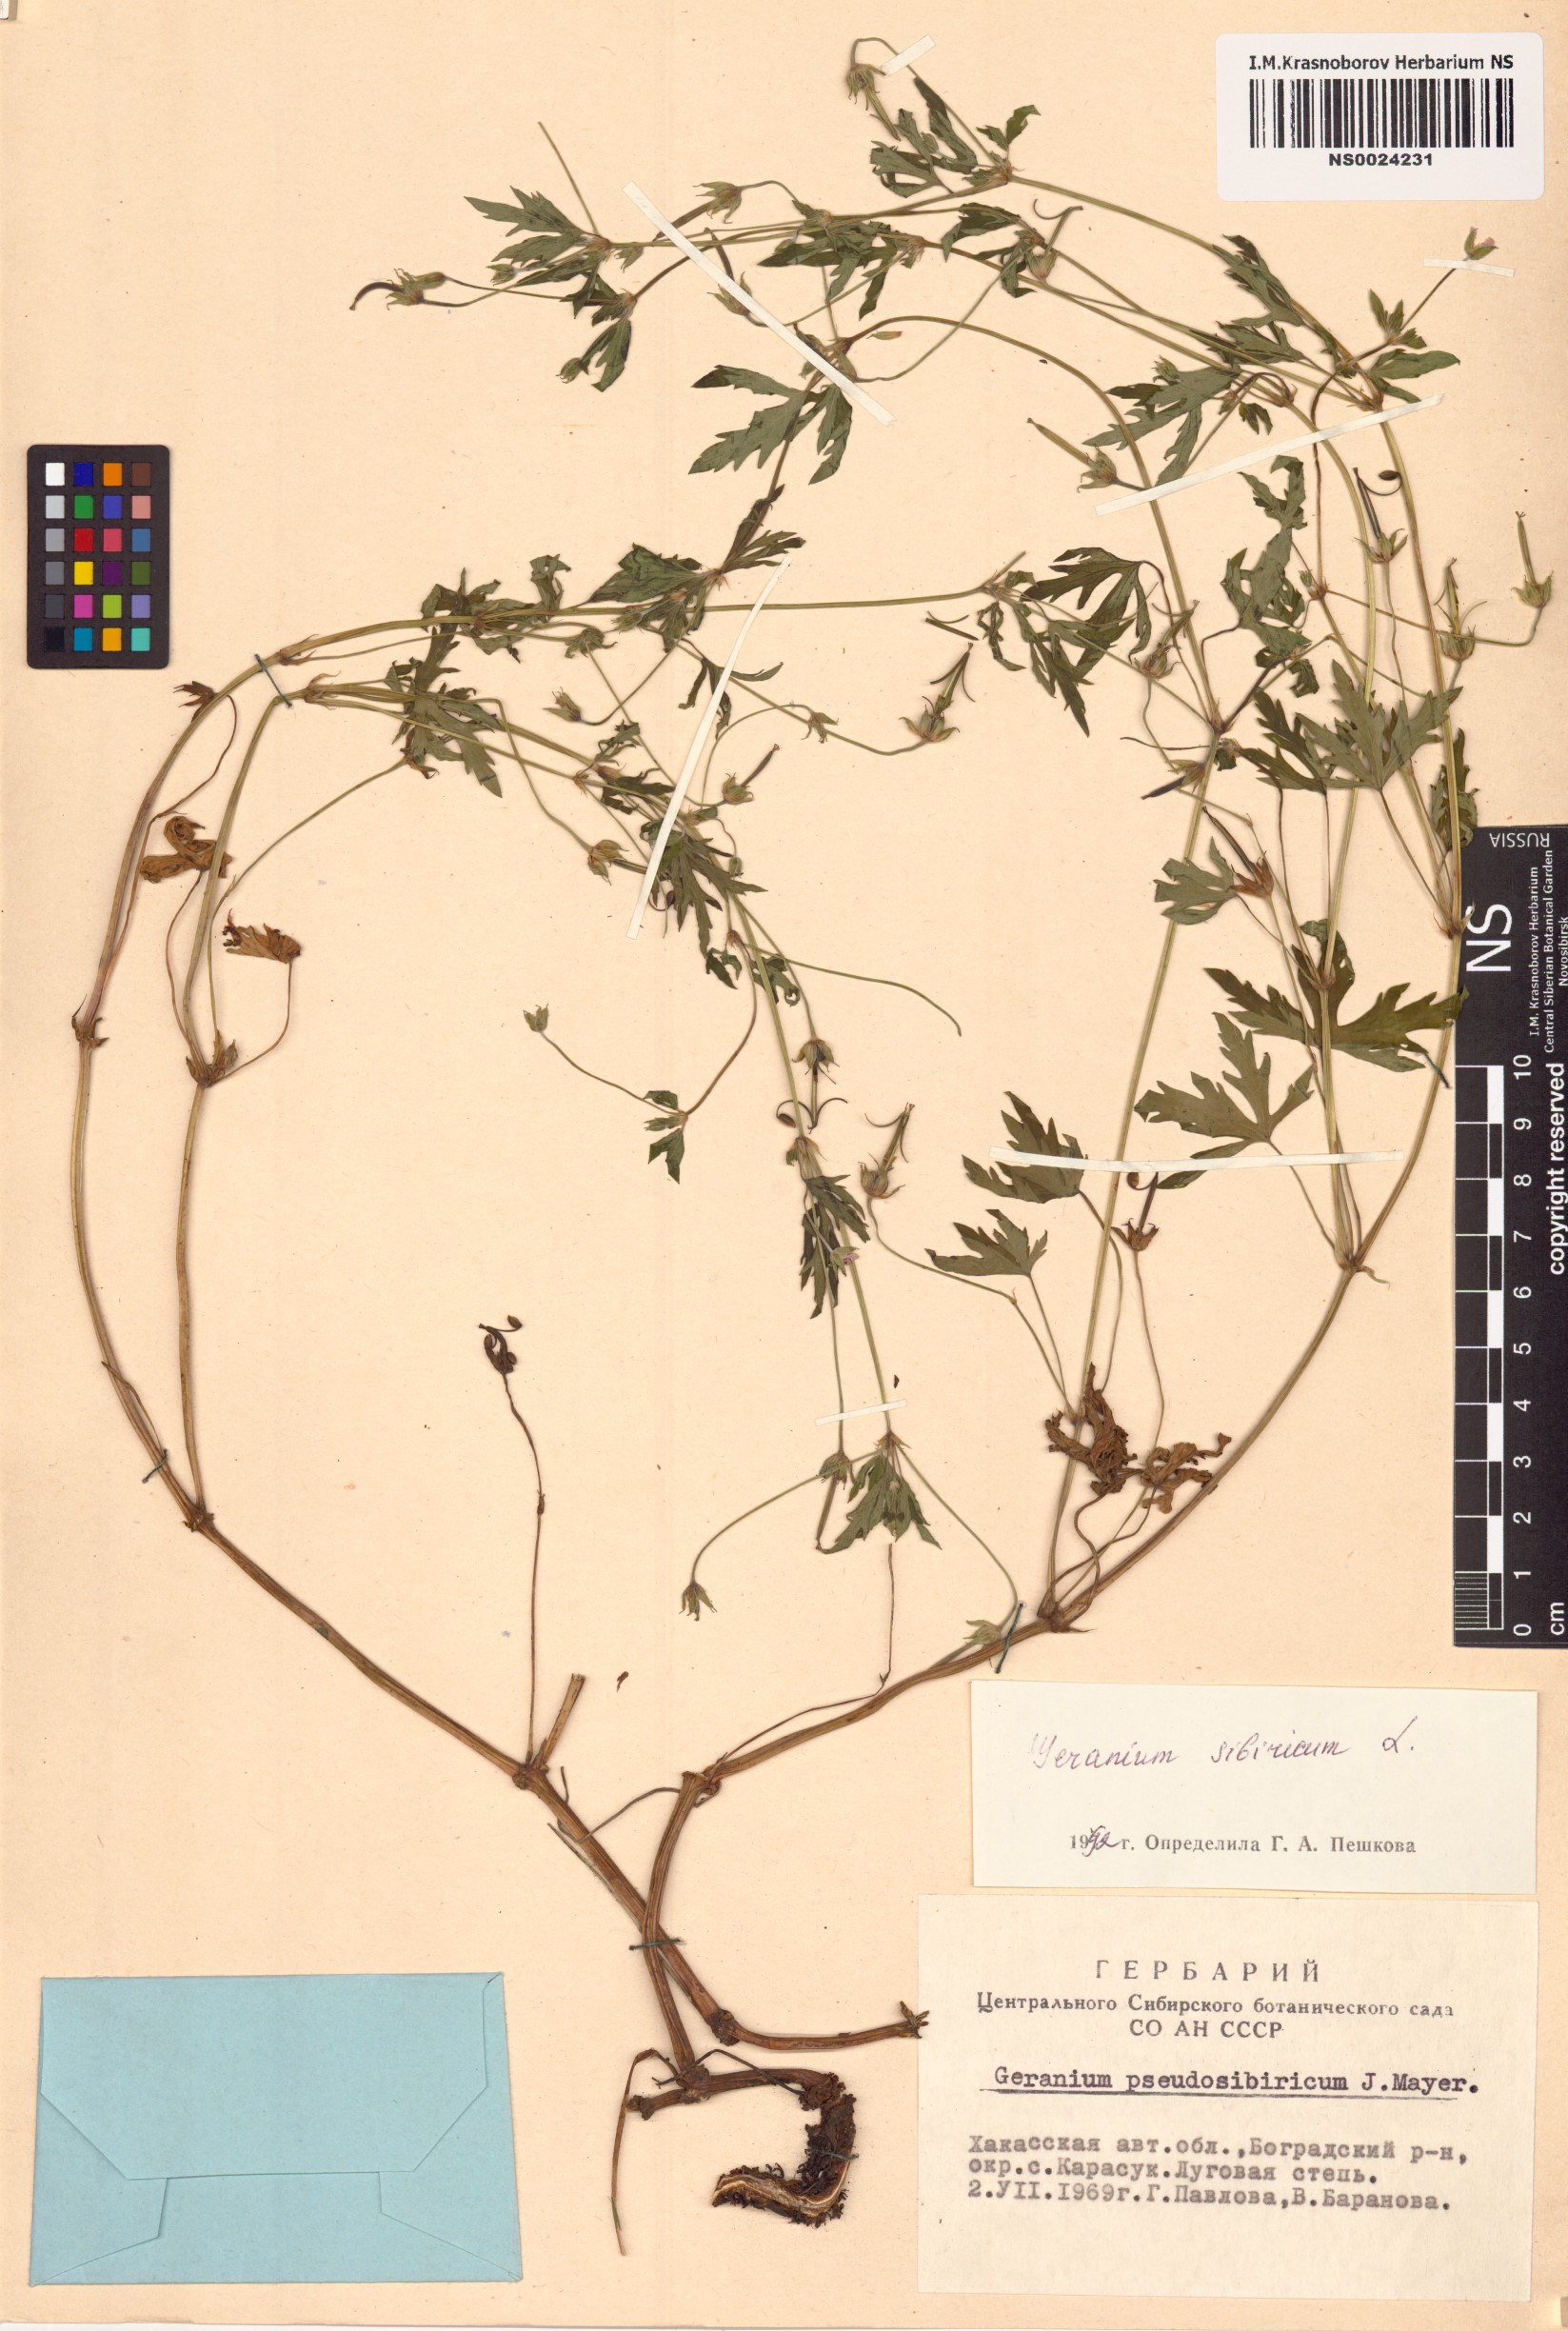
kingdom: Plantae
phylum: Tracheophyta
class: Magnoliopsida
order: Geraniales
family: Geraniaceae
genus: Geranium
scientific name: Geranium sibiricum
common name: Siberian crane's-bill
